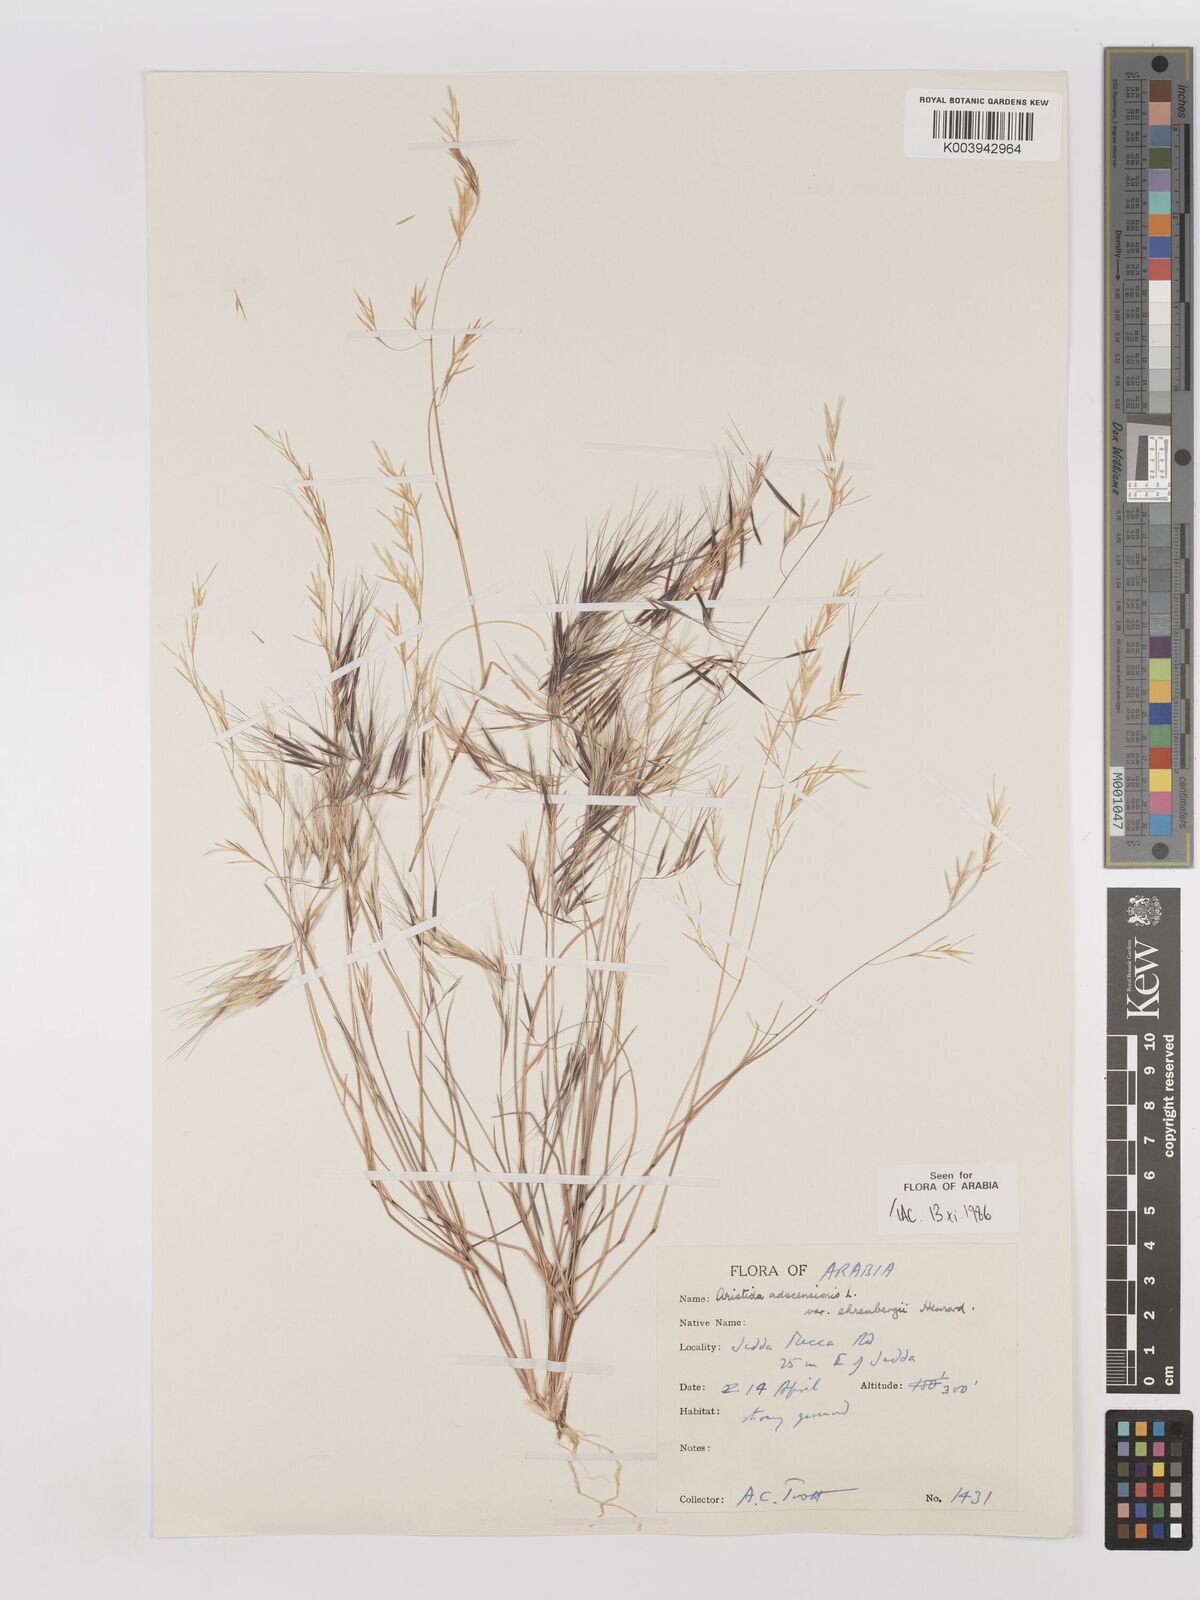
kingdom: Plantae
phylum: Tracheophyta
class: Liliopsida
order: Poales
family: Poaceae
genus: Aristida
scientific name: Aristida adscensionis
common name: Sixweeks threeawn
